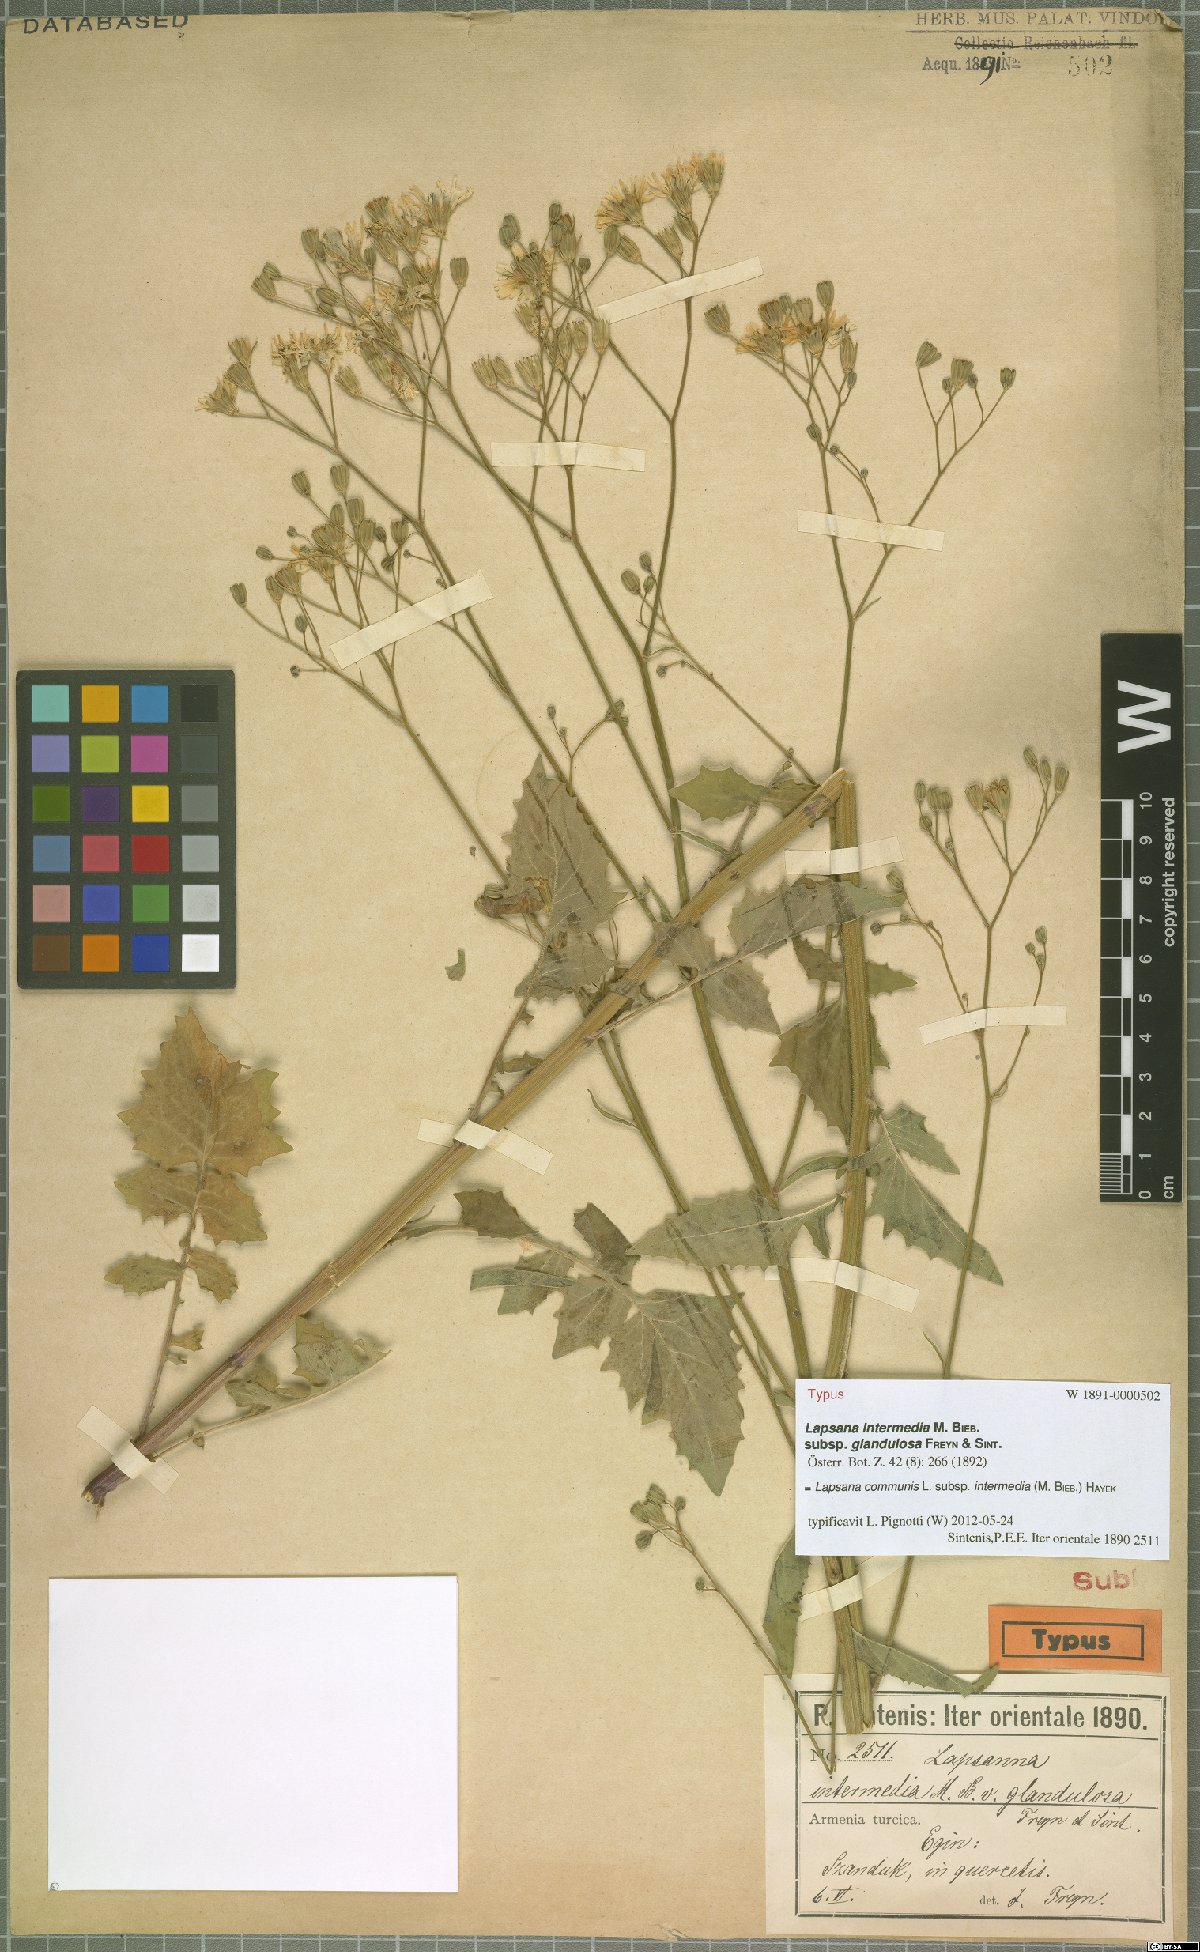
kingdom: Plantae
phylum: Tracheophyta
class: Magnoliopsida
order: Asterales
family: Asteraceae
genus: Lapsana
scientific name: Lapsana communis
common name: Nipplewort
